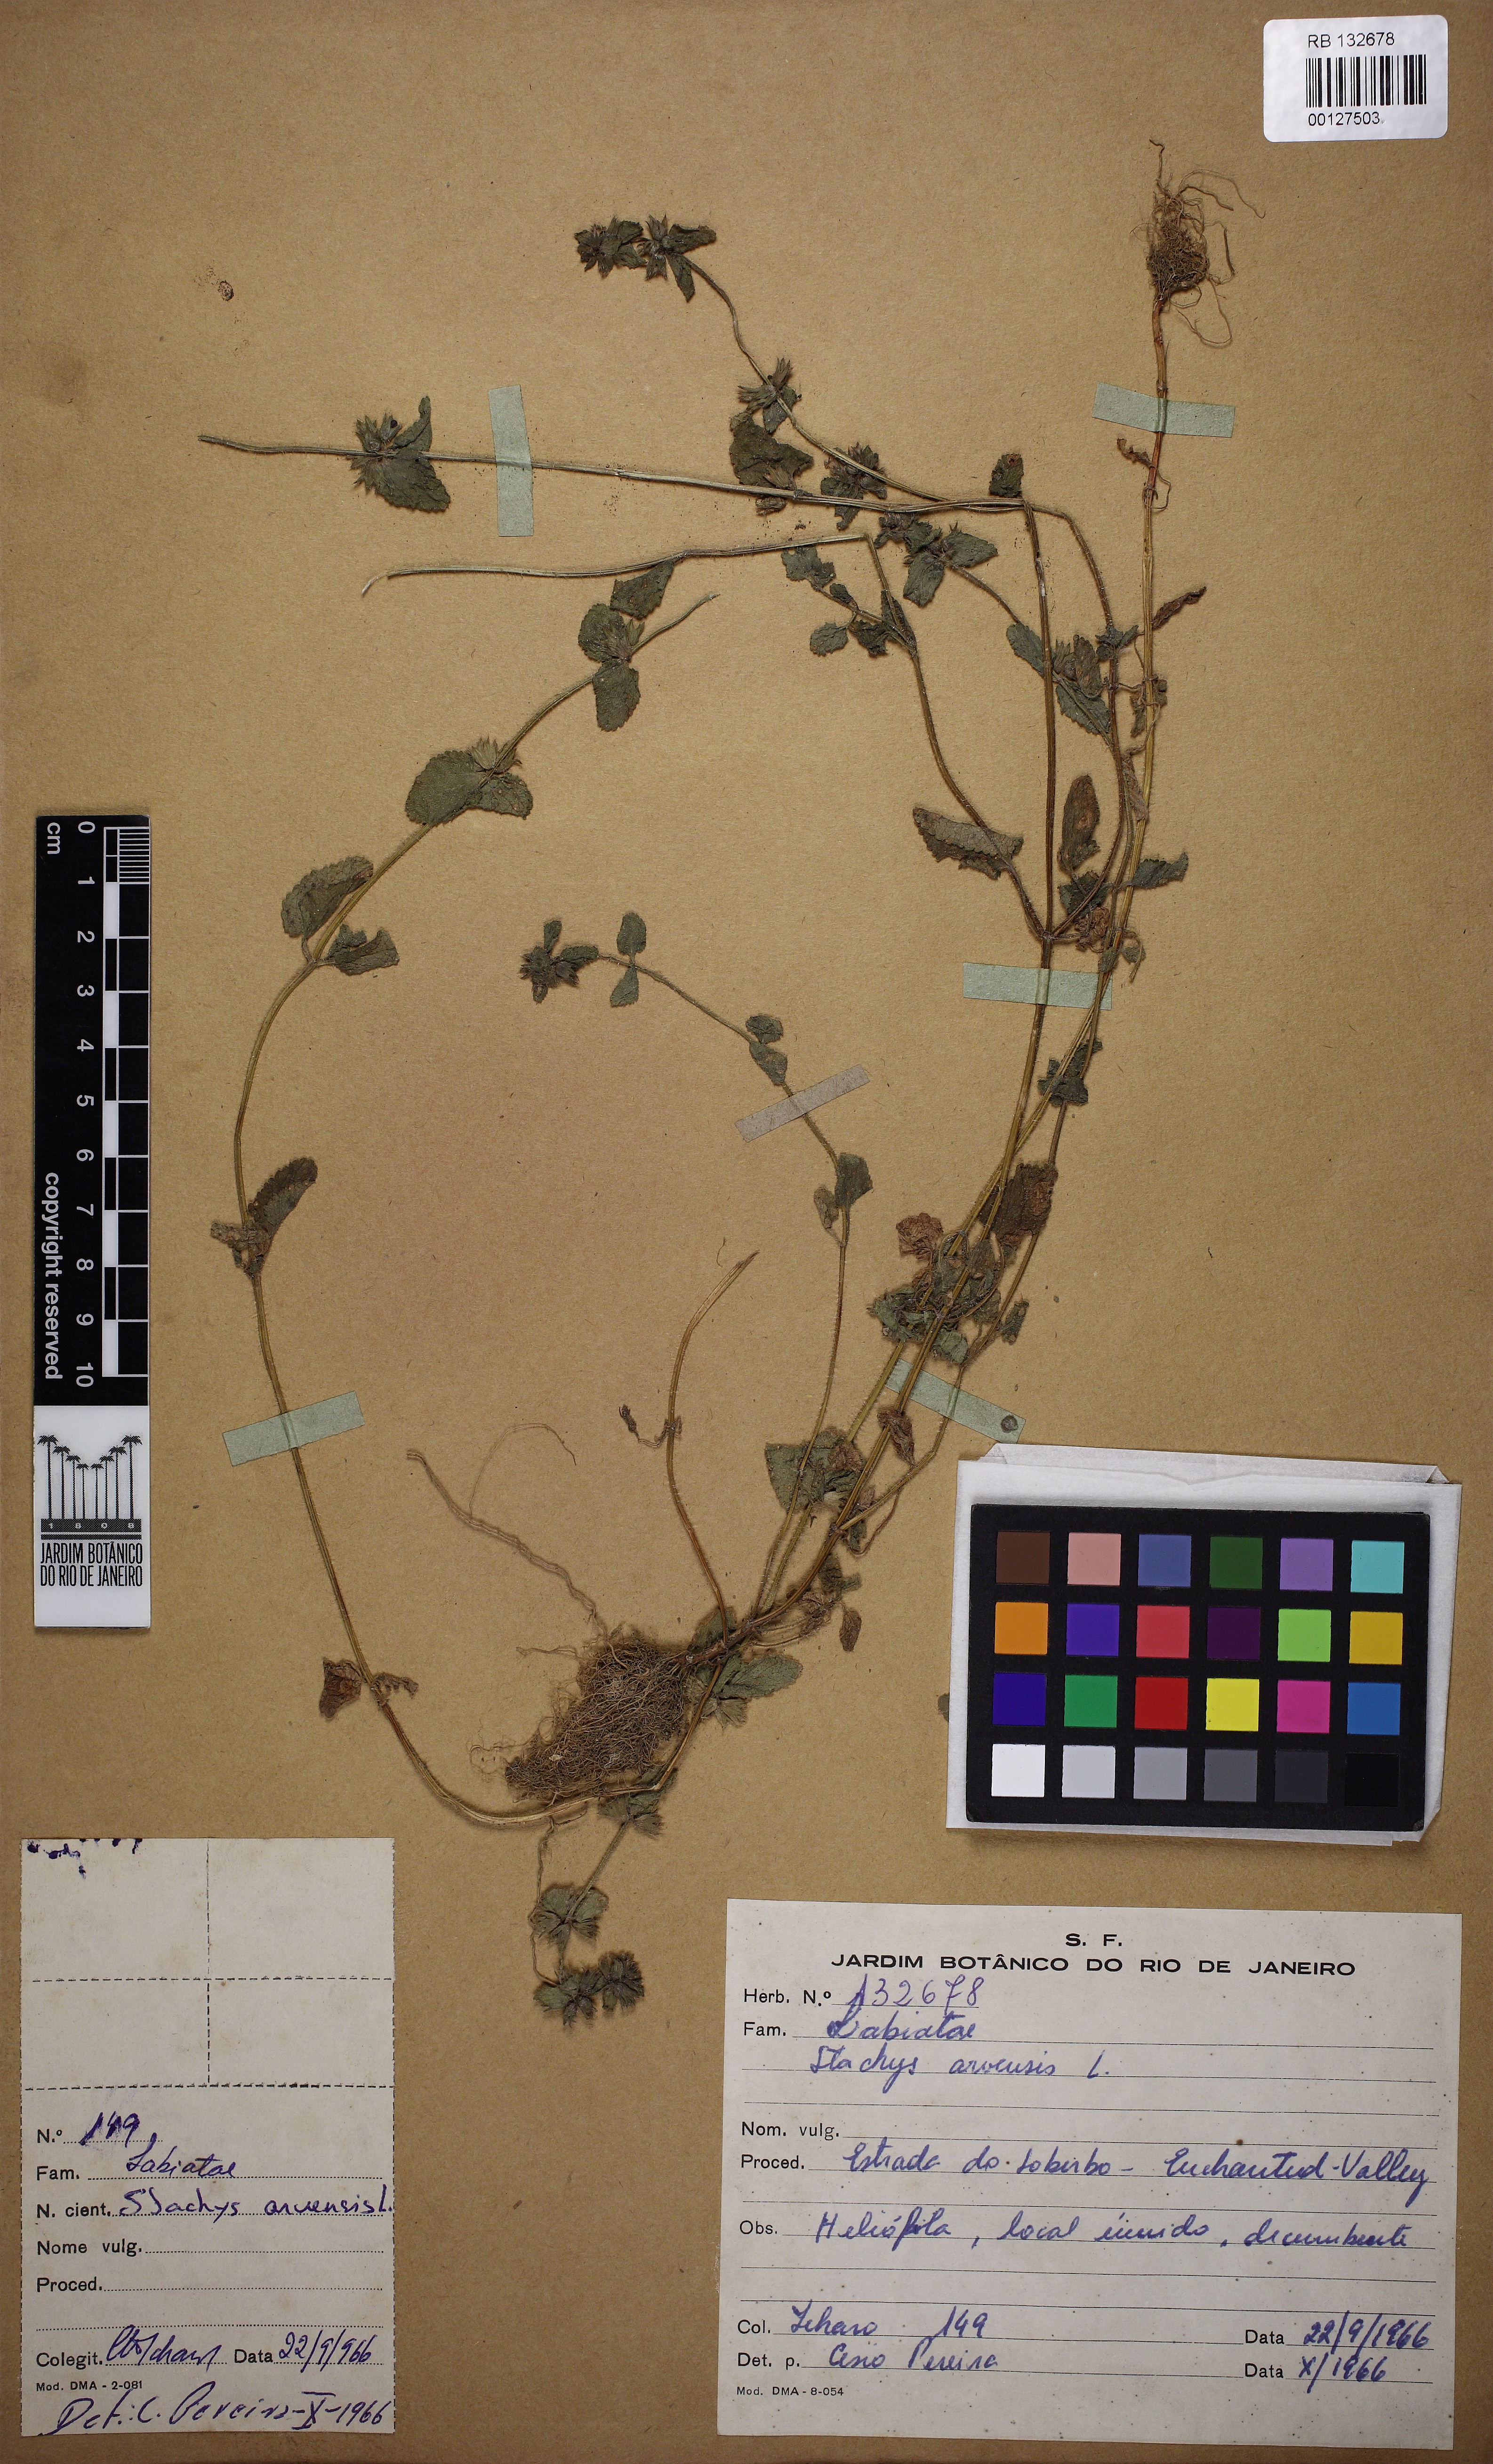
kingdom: Plantae
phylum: Tracheophyta
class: Magnoliopsida
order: Lamiales
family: Lamiaceae
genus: Stachys
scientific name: Stachys arvensis
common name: Field woundwort
